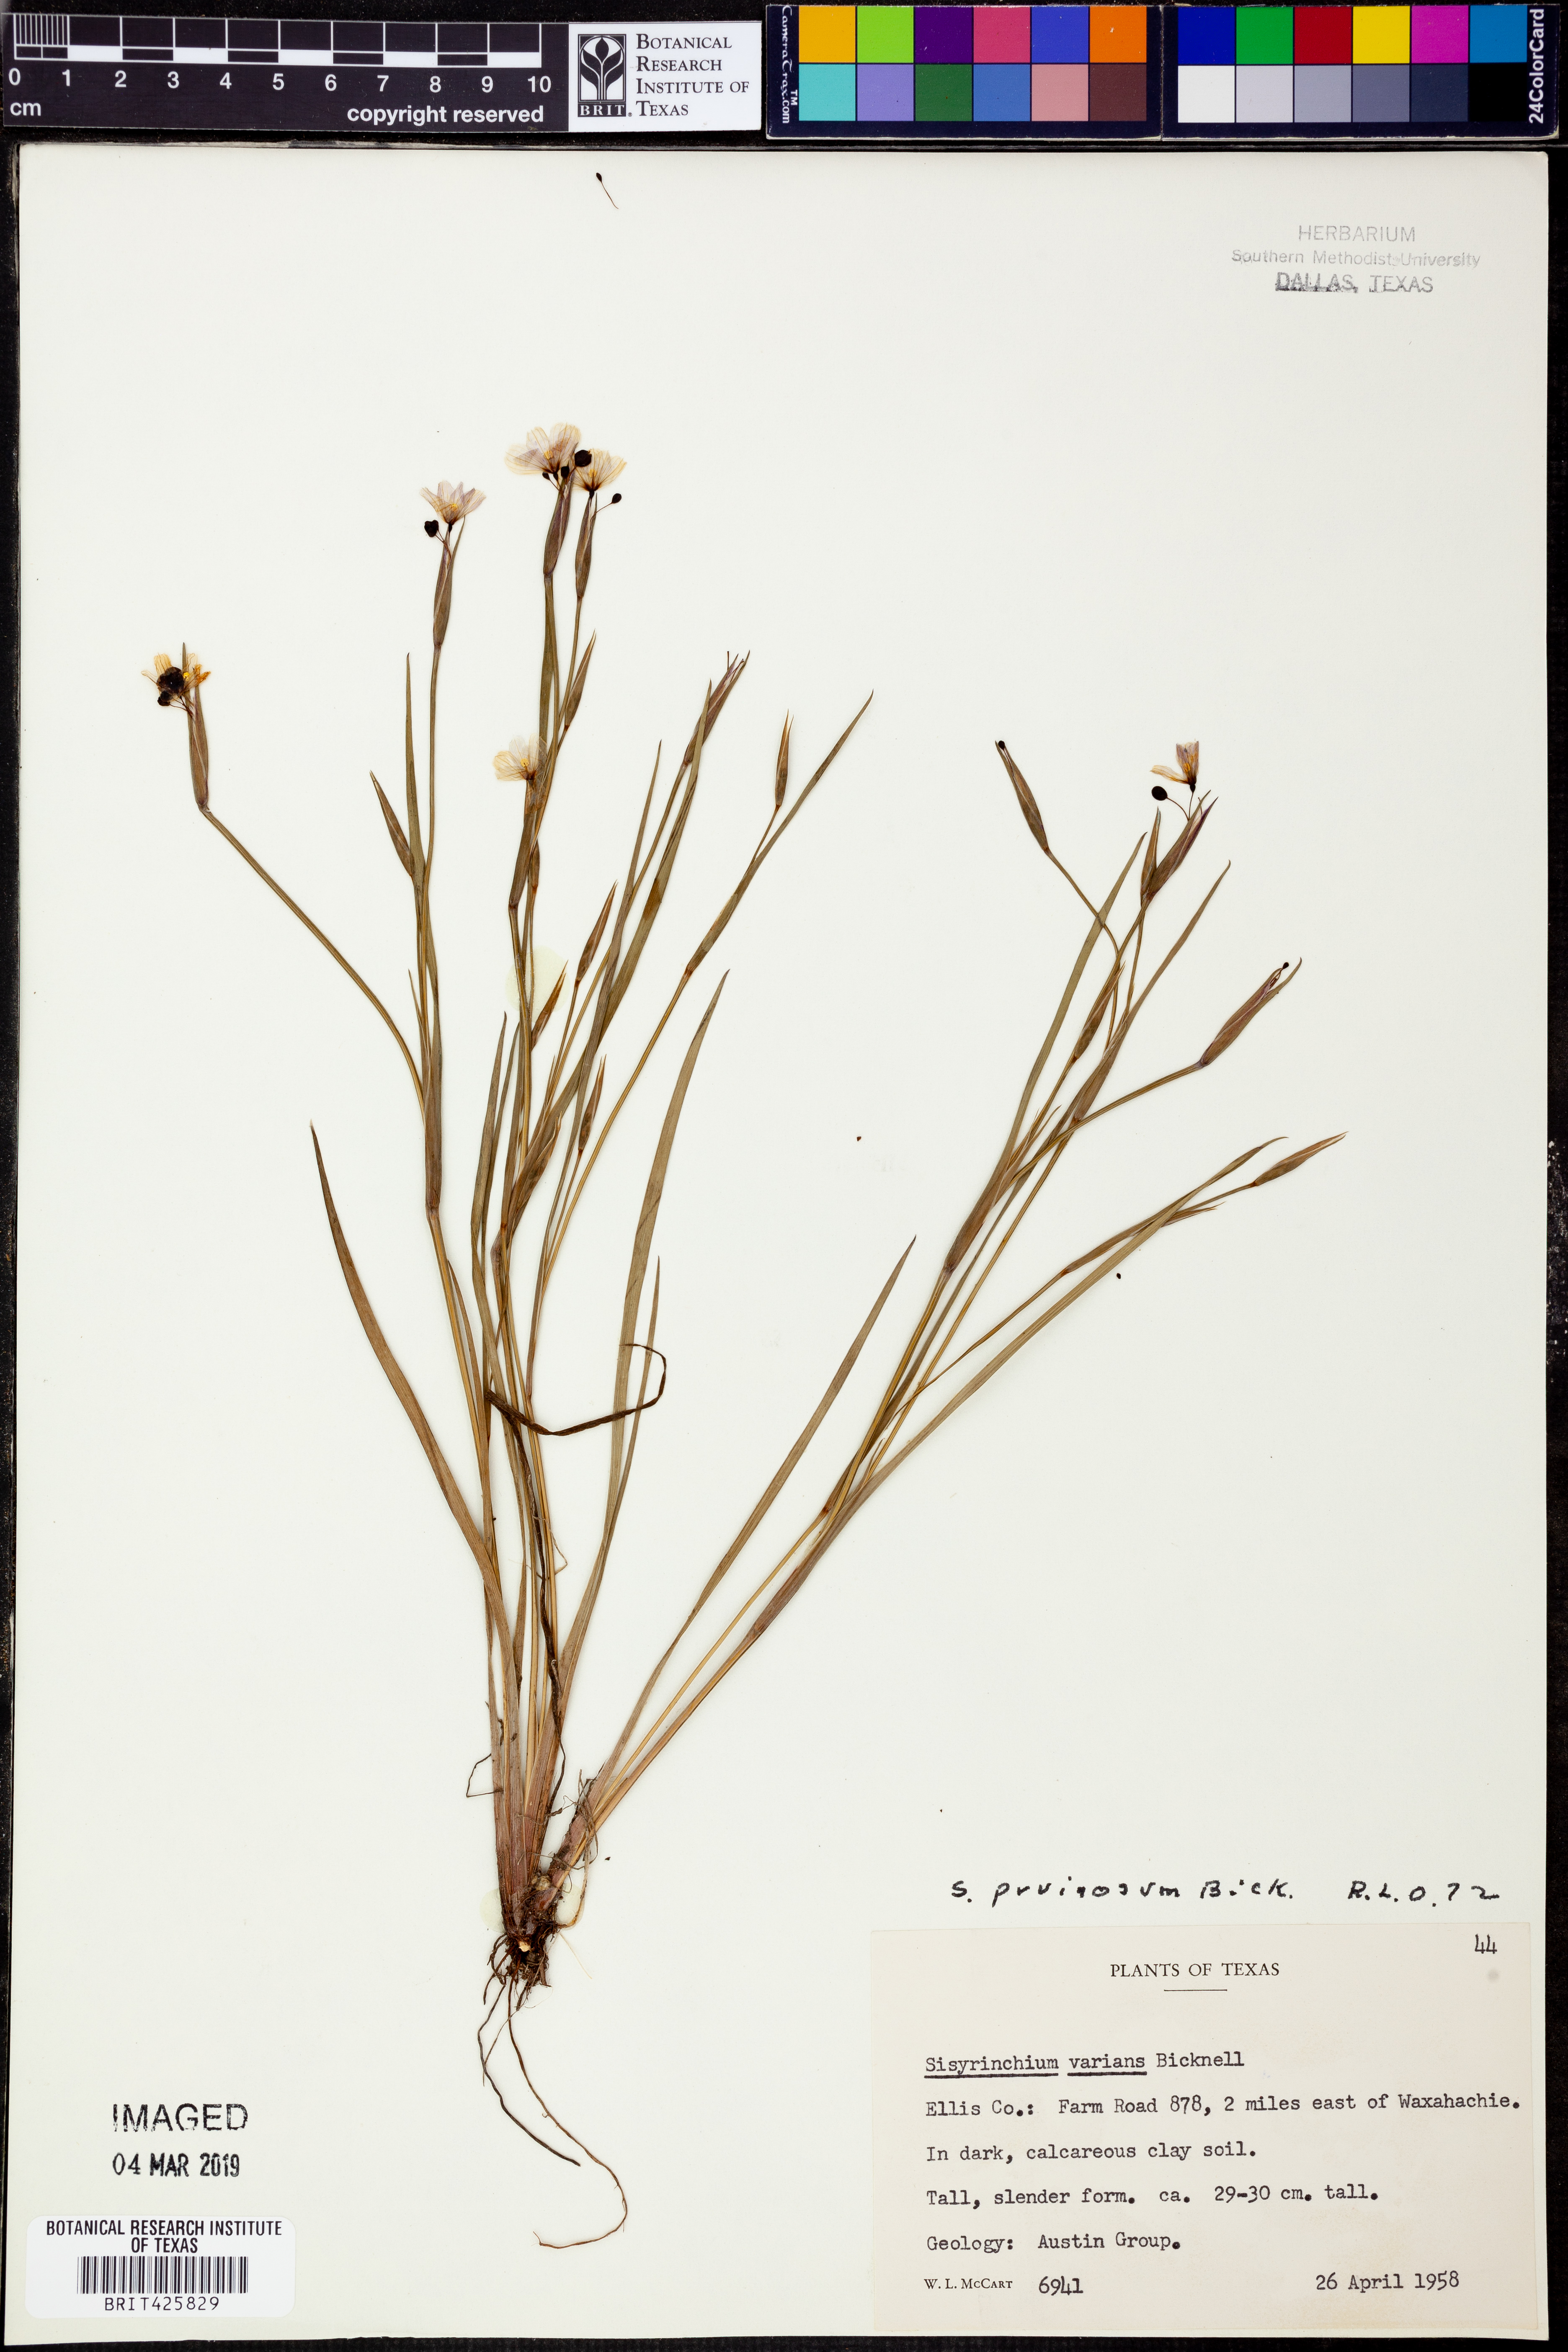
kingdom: Plantae
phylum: Tracheophyta
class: Liliopsida
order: Asparagales
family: Iridaceae
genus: Sisyrinchium
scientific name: Sisyrinchium pruinosum
